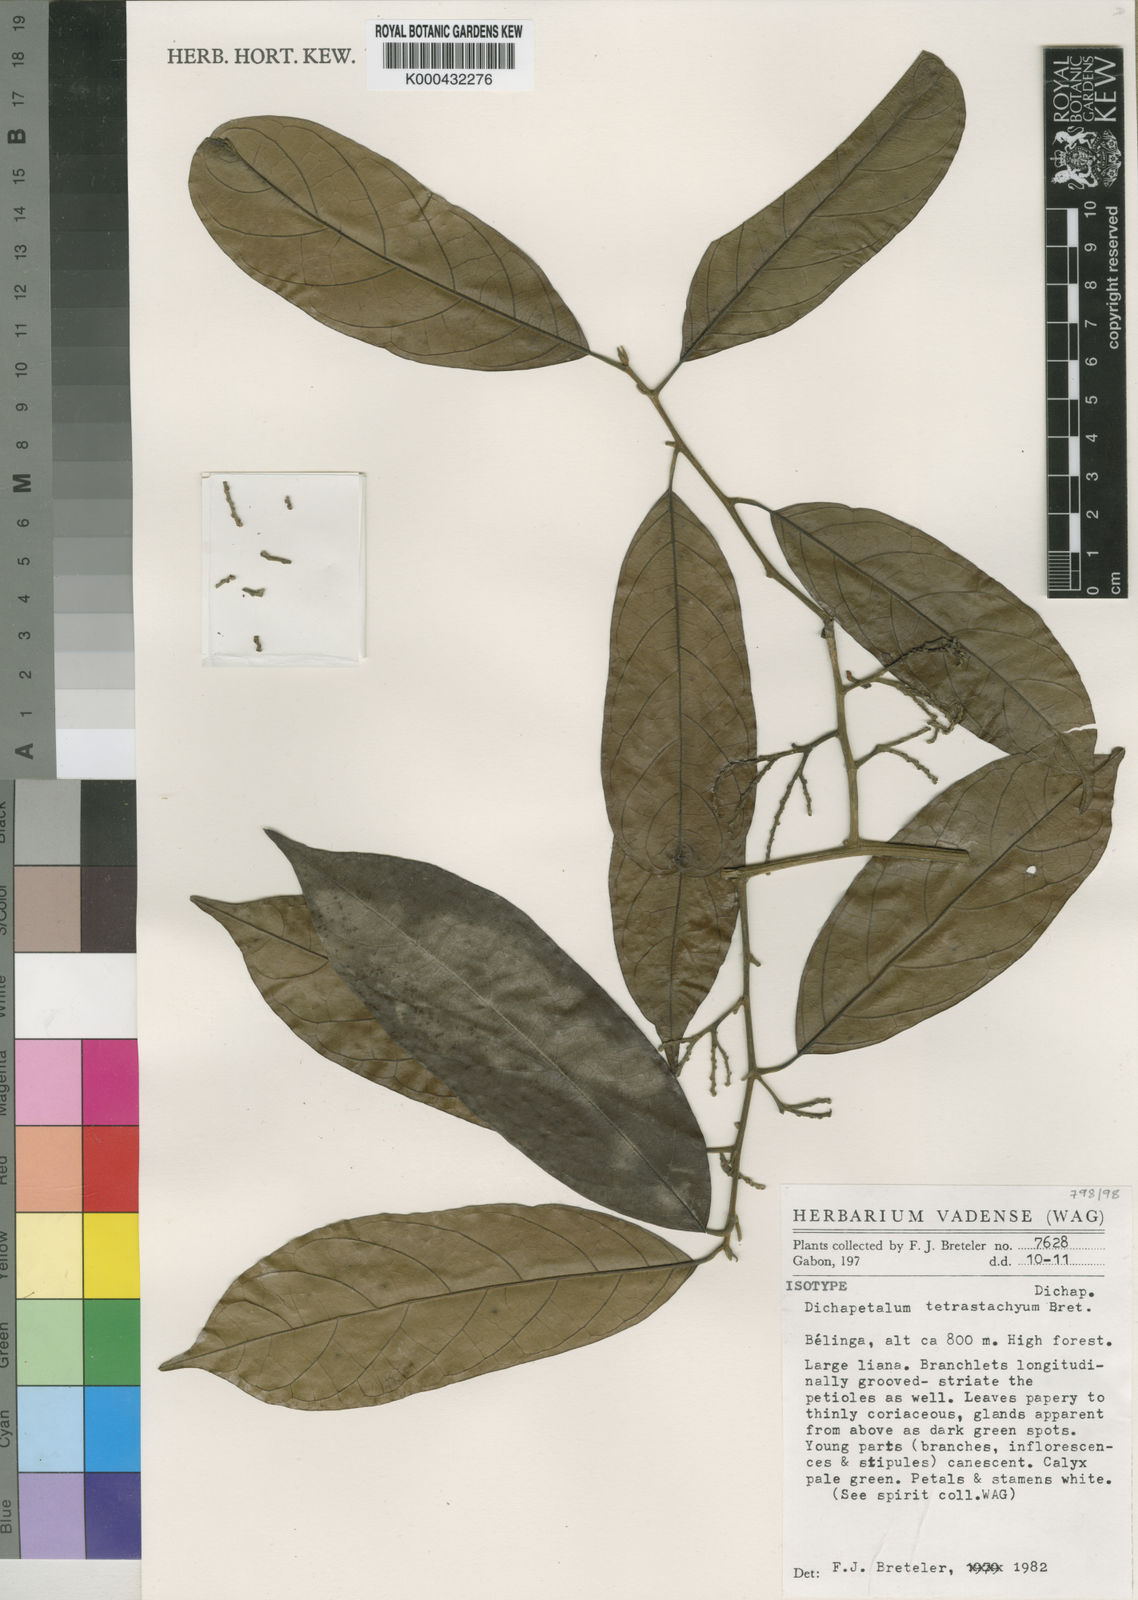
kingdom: Plantae
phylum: Tracheophyta
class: Magnoliopsida
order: Malpighiales
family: Dichapetalaceae
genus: Dichapetalum
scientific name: Dichapetalum tetrastachyum
